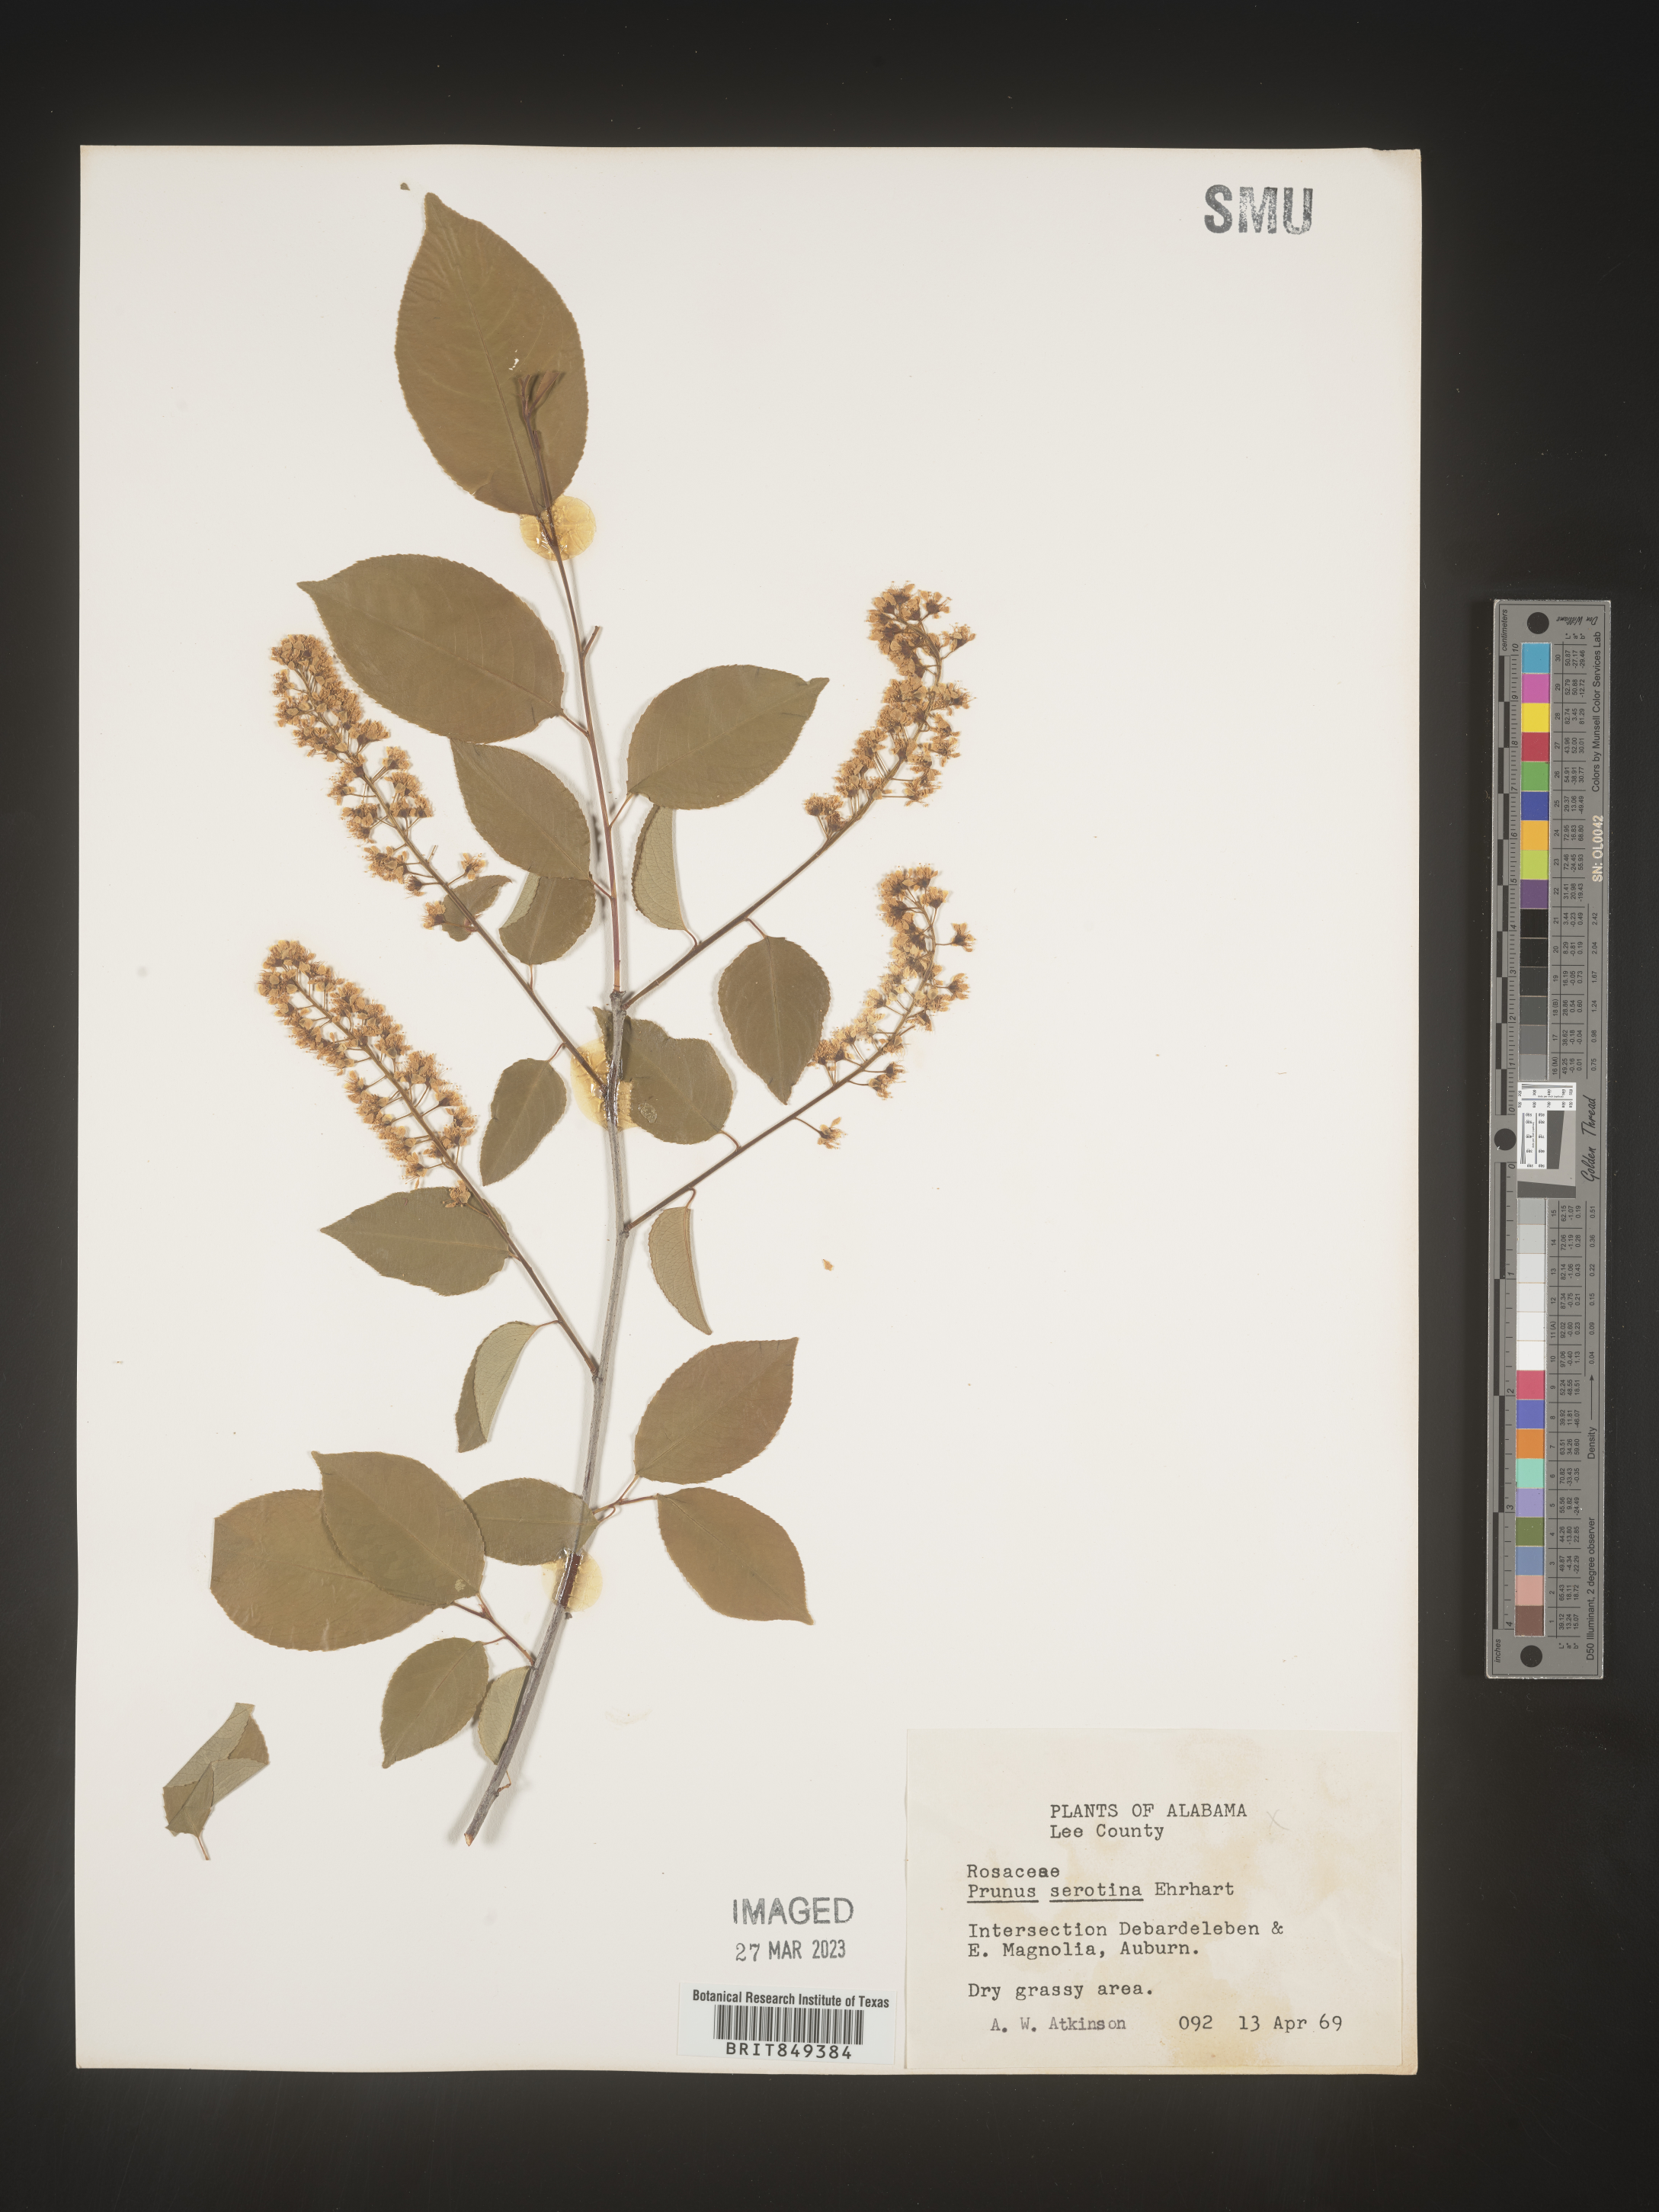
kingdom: Plantae
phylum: Tracheophyta
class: Magnoliopsida
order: Rosales
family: Rosaceae
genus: Prunus
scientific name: Prunus serotina
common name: Black cherry
